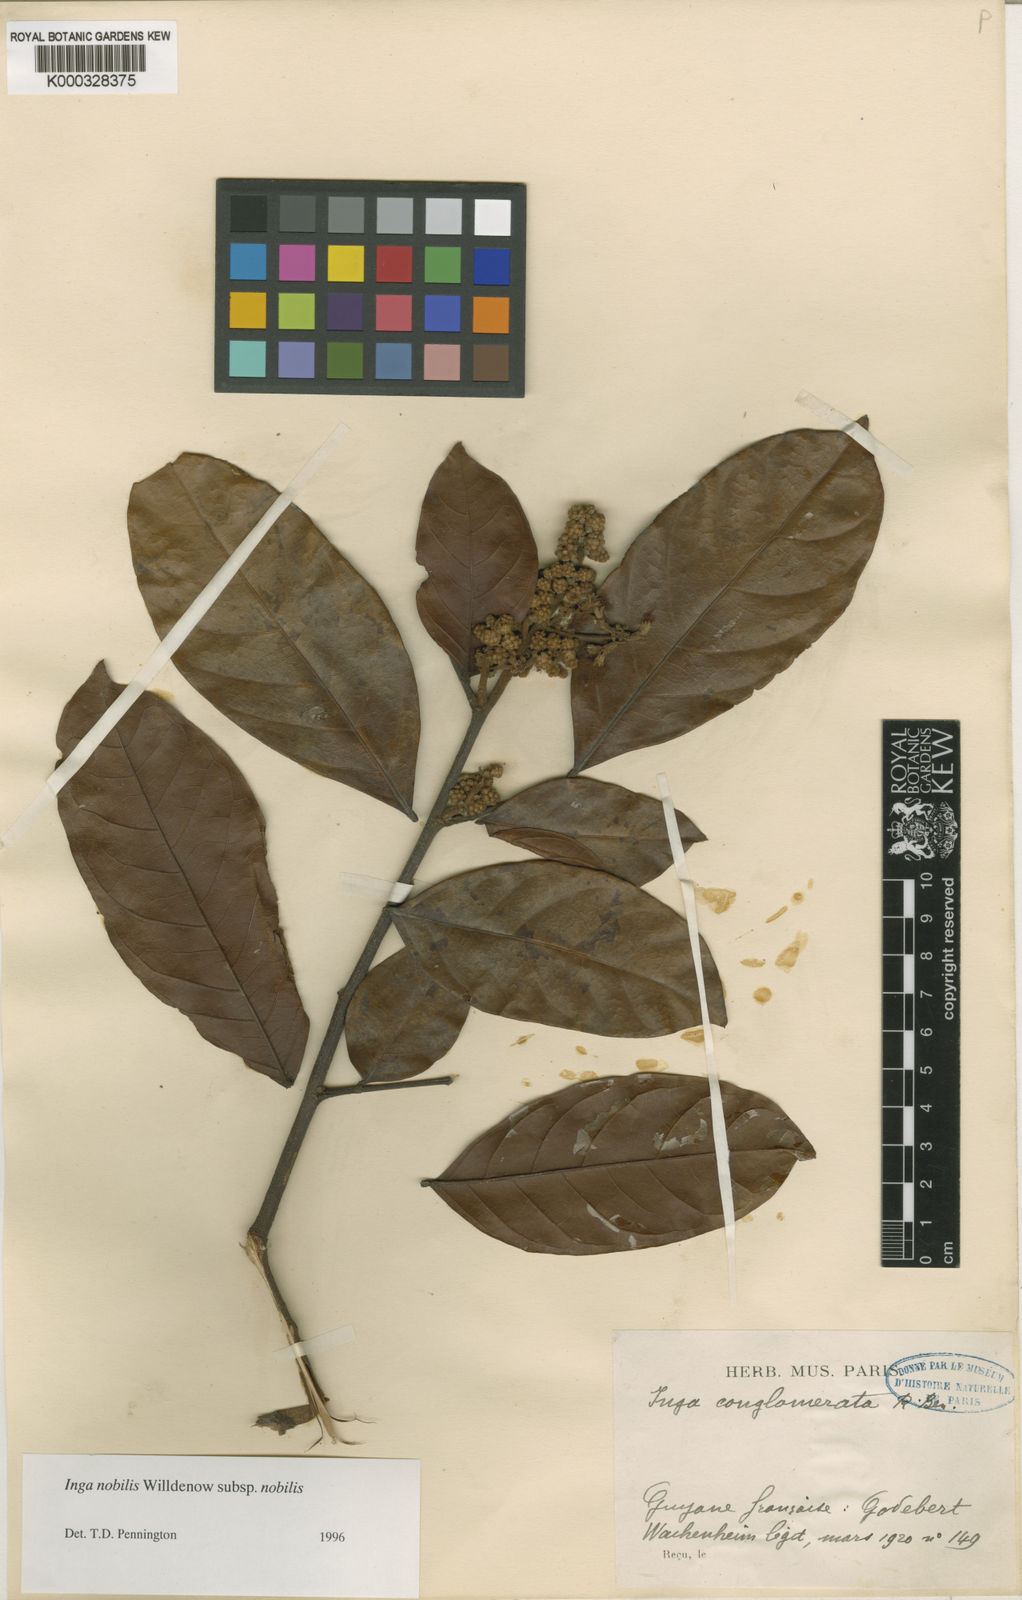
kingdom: Plantae
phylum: Tracheophyta
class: Magnoliopsida
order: Fabales
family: Fabaceae
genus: Inga
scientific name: Inga nobilis
